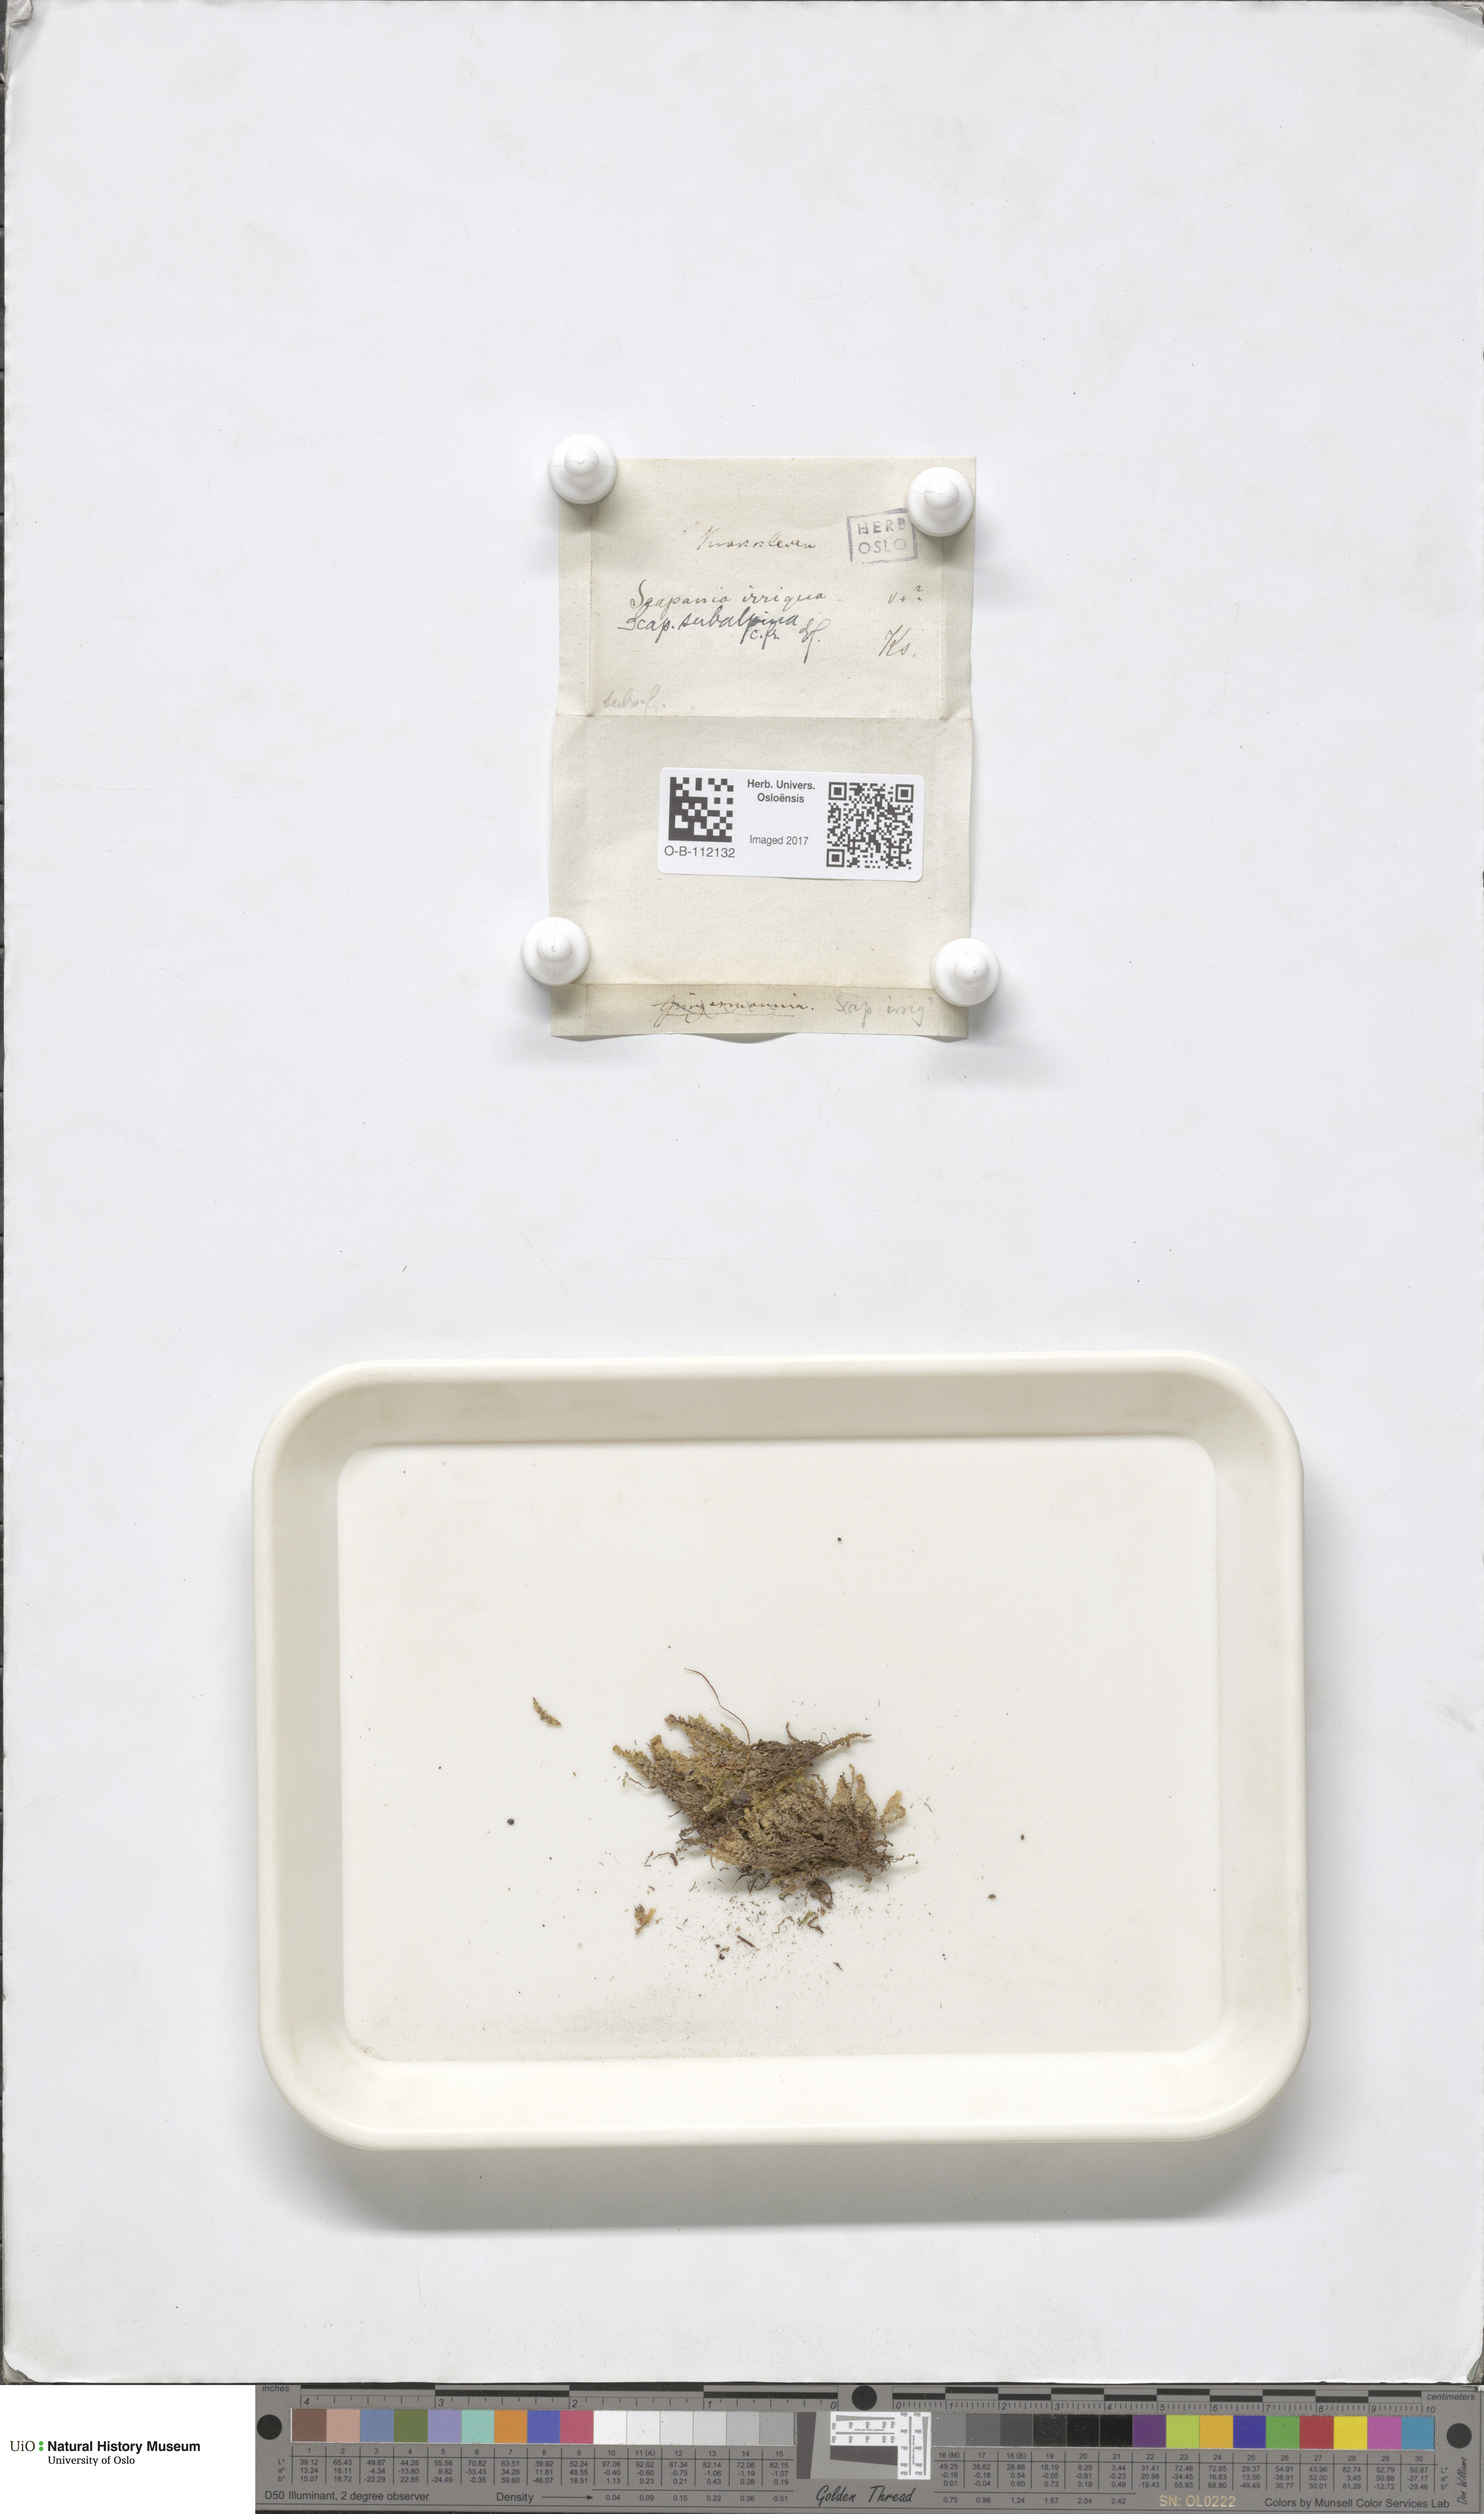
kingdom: Plantae
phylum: Marchantiophyta
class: Jungermanniopsida
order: Jungermanniales
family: Scapaniaceae
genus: Scapania
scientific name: Scapania subalpina
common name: Subalpine earwort
